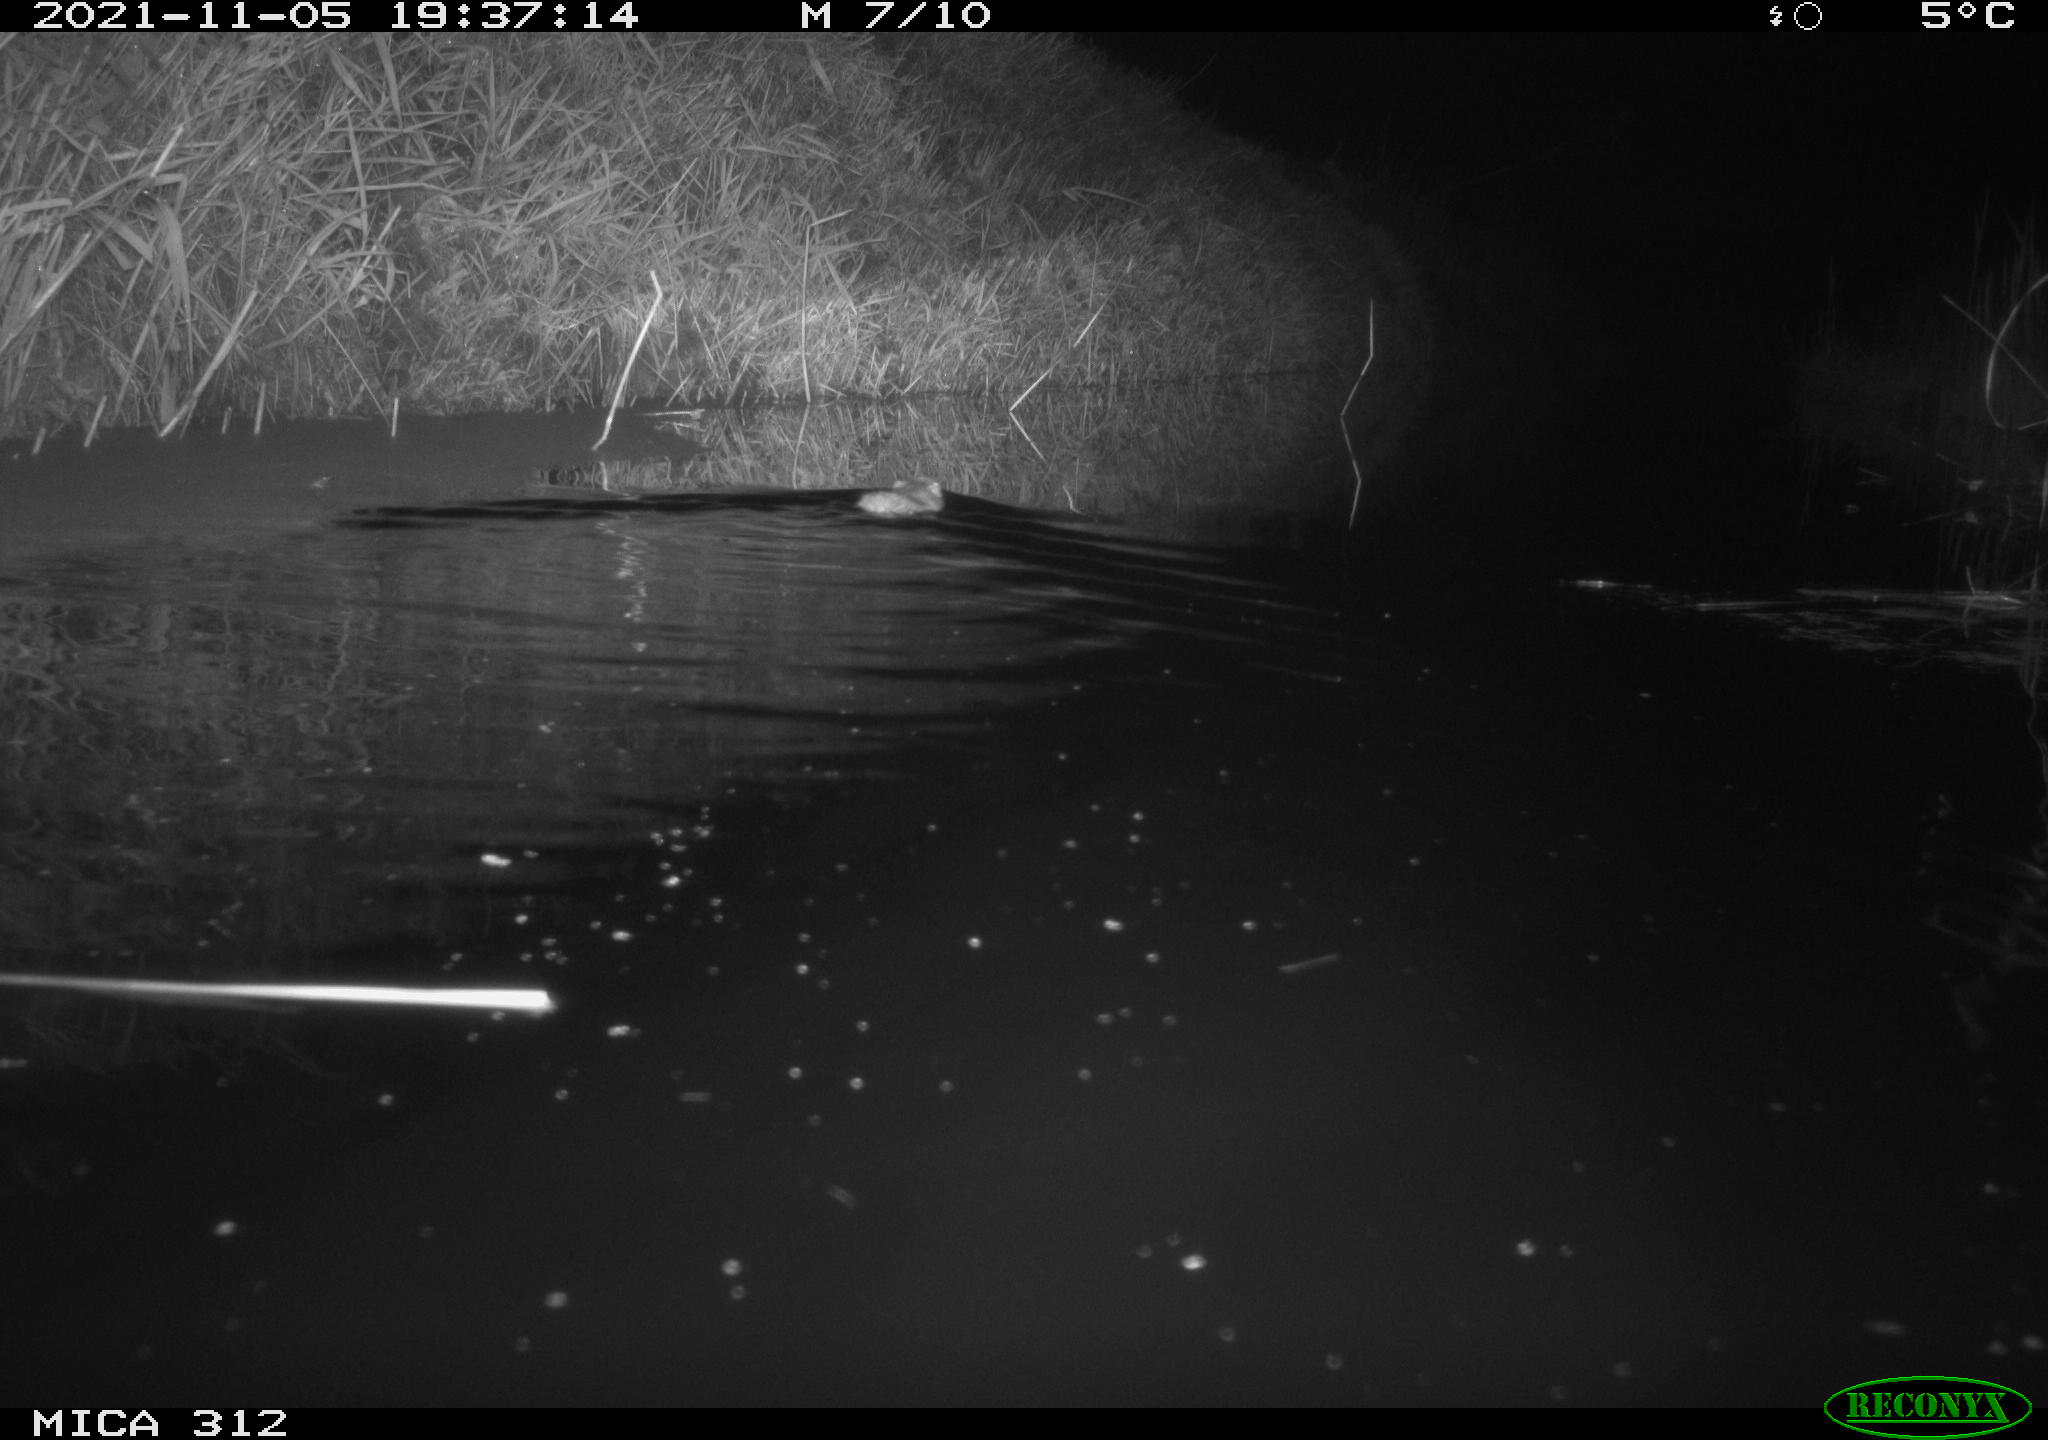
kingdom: Animalia
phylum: Chordata
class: Mammalia
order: Rodentia
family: Muridae
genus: Rattus
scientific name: Rattus norvegicus
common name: Brown rat
